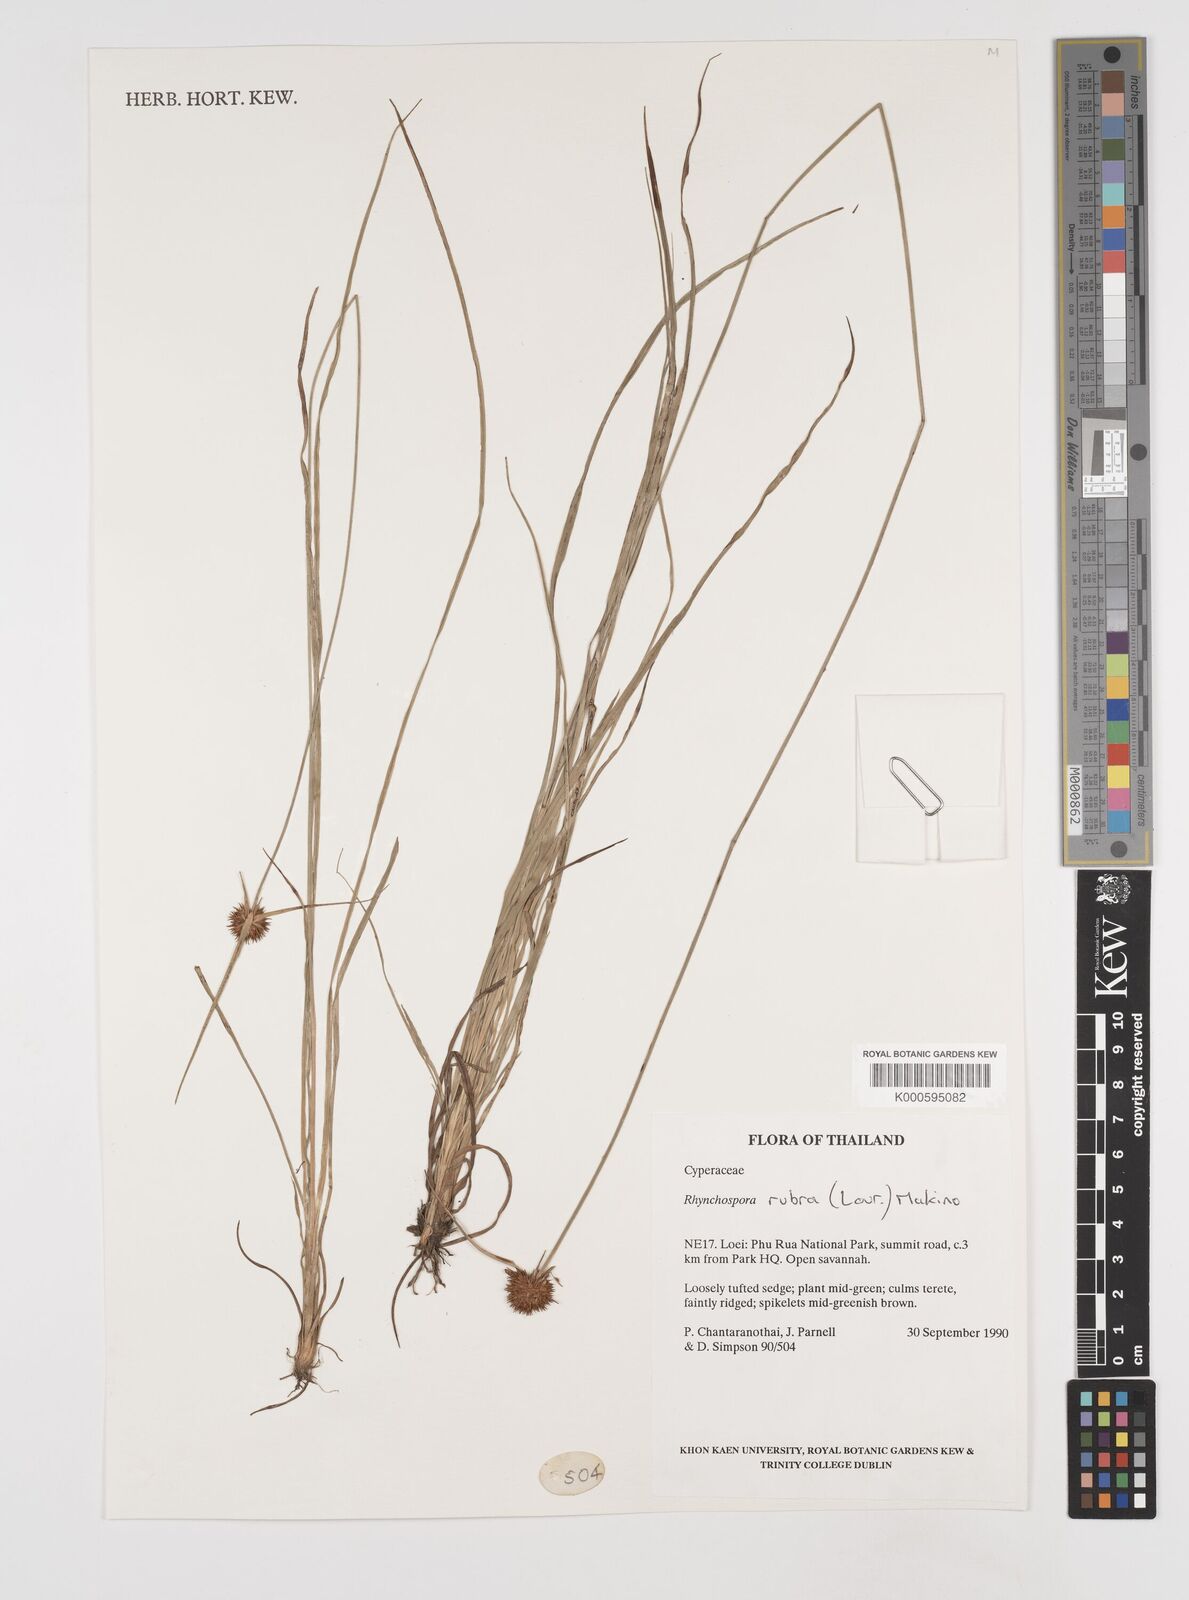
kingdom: Plantae
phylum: Tracheophyta
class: Liliopsida
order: Poales
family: Cyperaceae
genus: Rhynchospora
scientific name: Rhynchospora rubra
